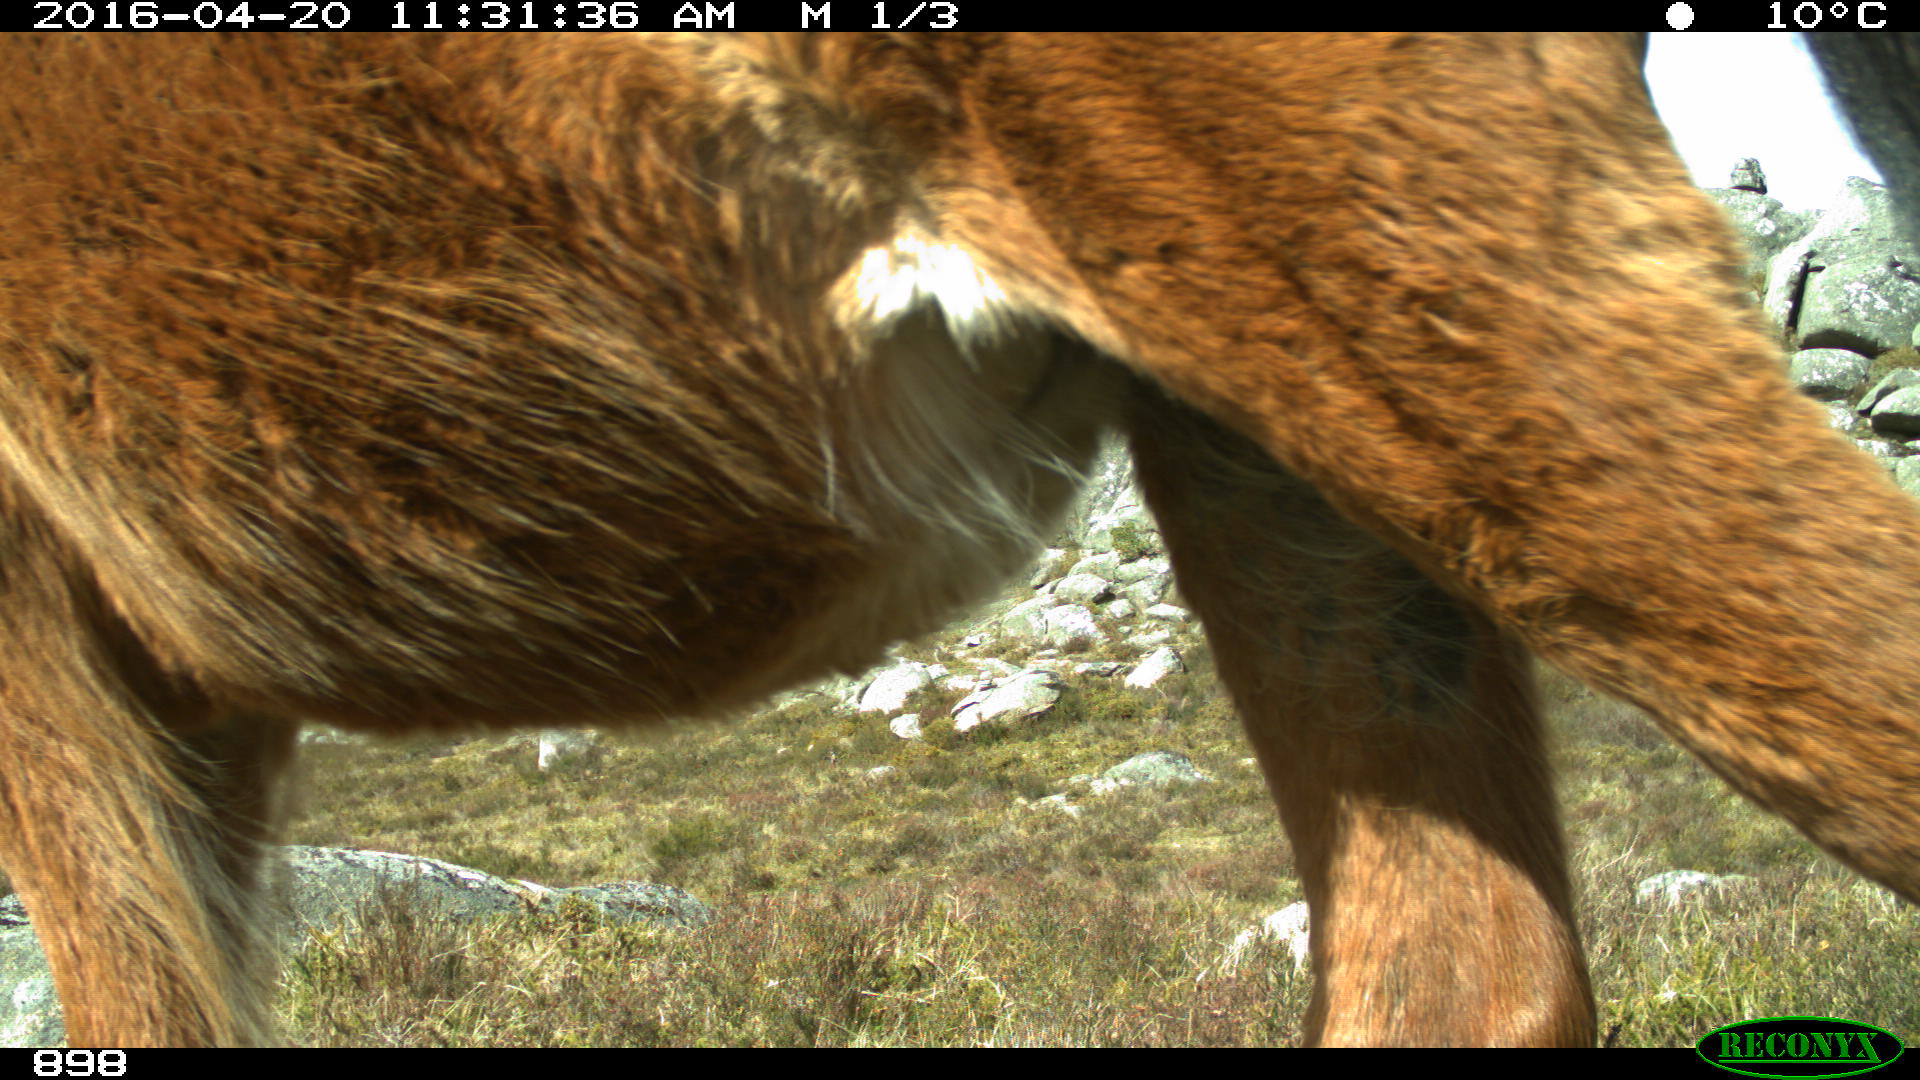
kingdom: Animalia
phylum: Chordata
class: Mammalia
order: Perissodactyla
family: Equidae
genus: Equus
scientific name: Equus caballus
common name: Horse
